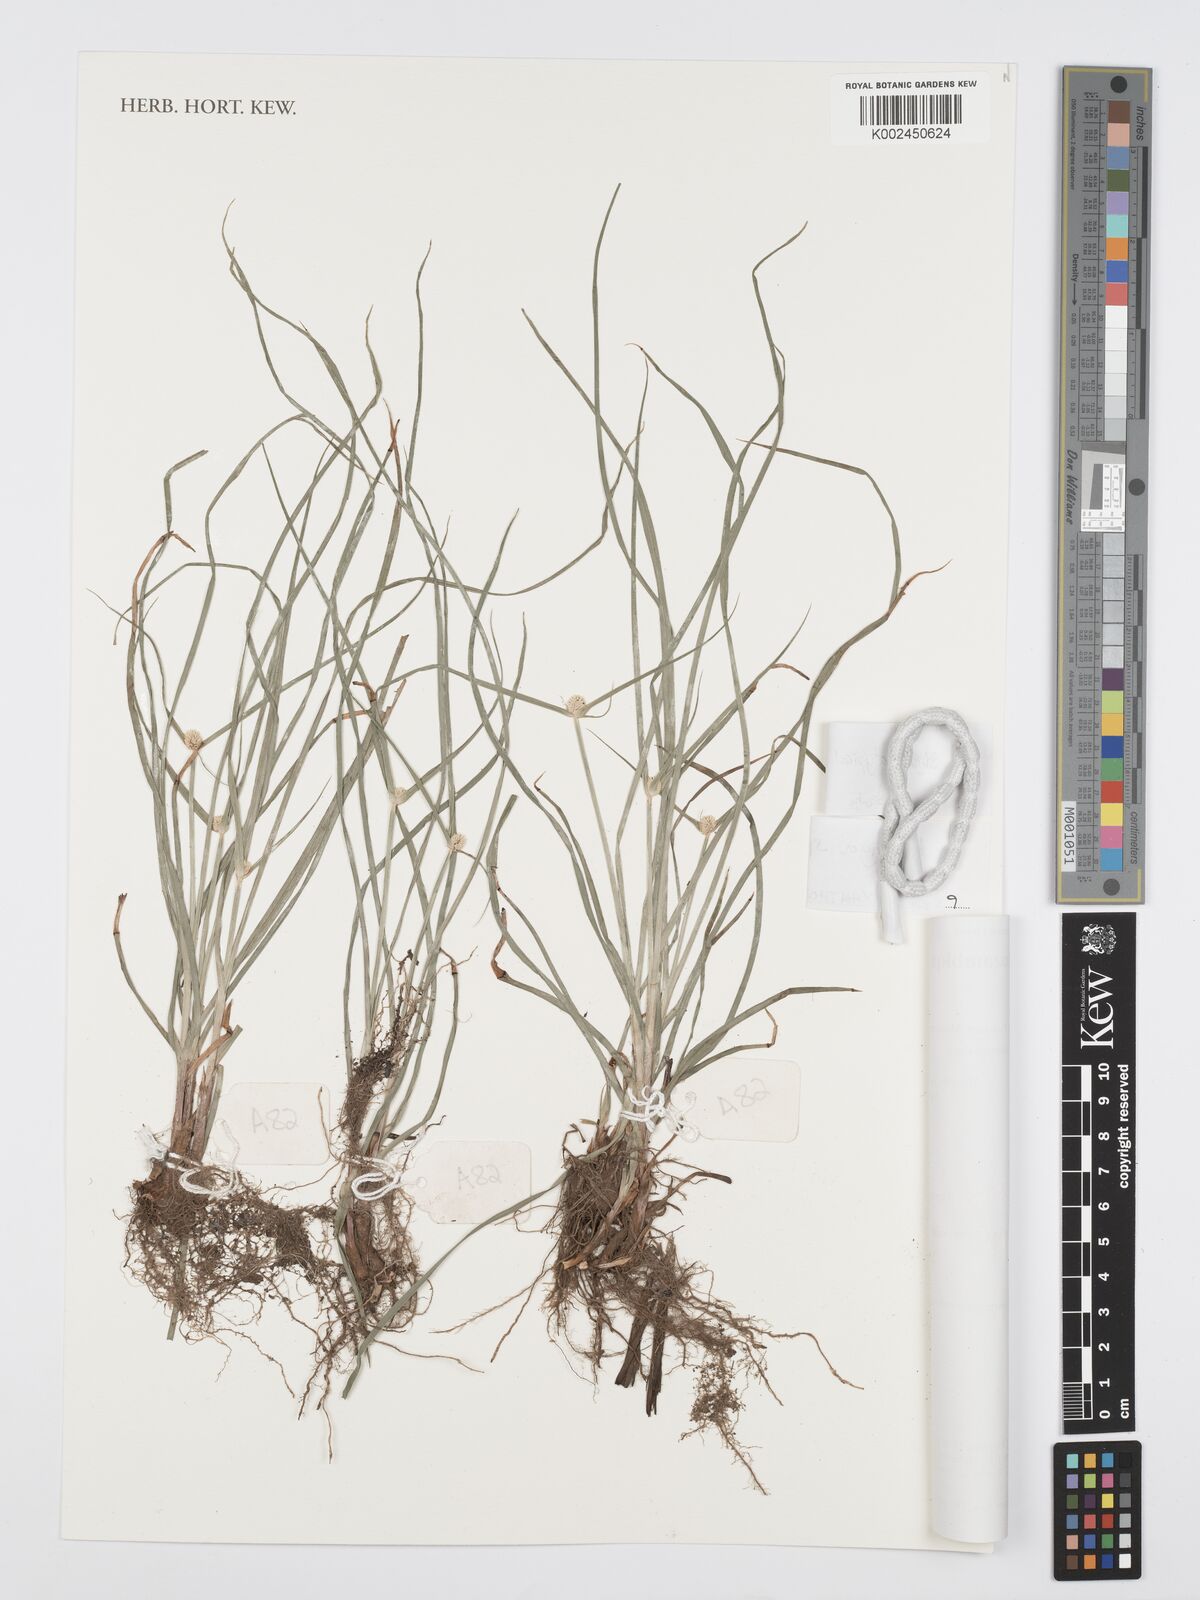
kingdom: Plantae
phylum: Tracheophyta
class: Liliopsida
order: Poales
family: Cyperaceae
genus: Cyperus
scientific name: Cyperus
